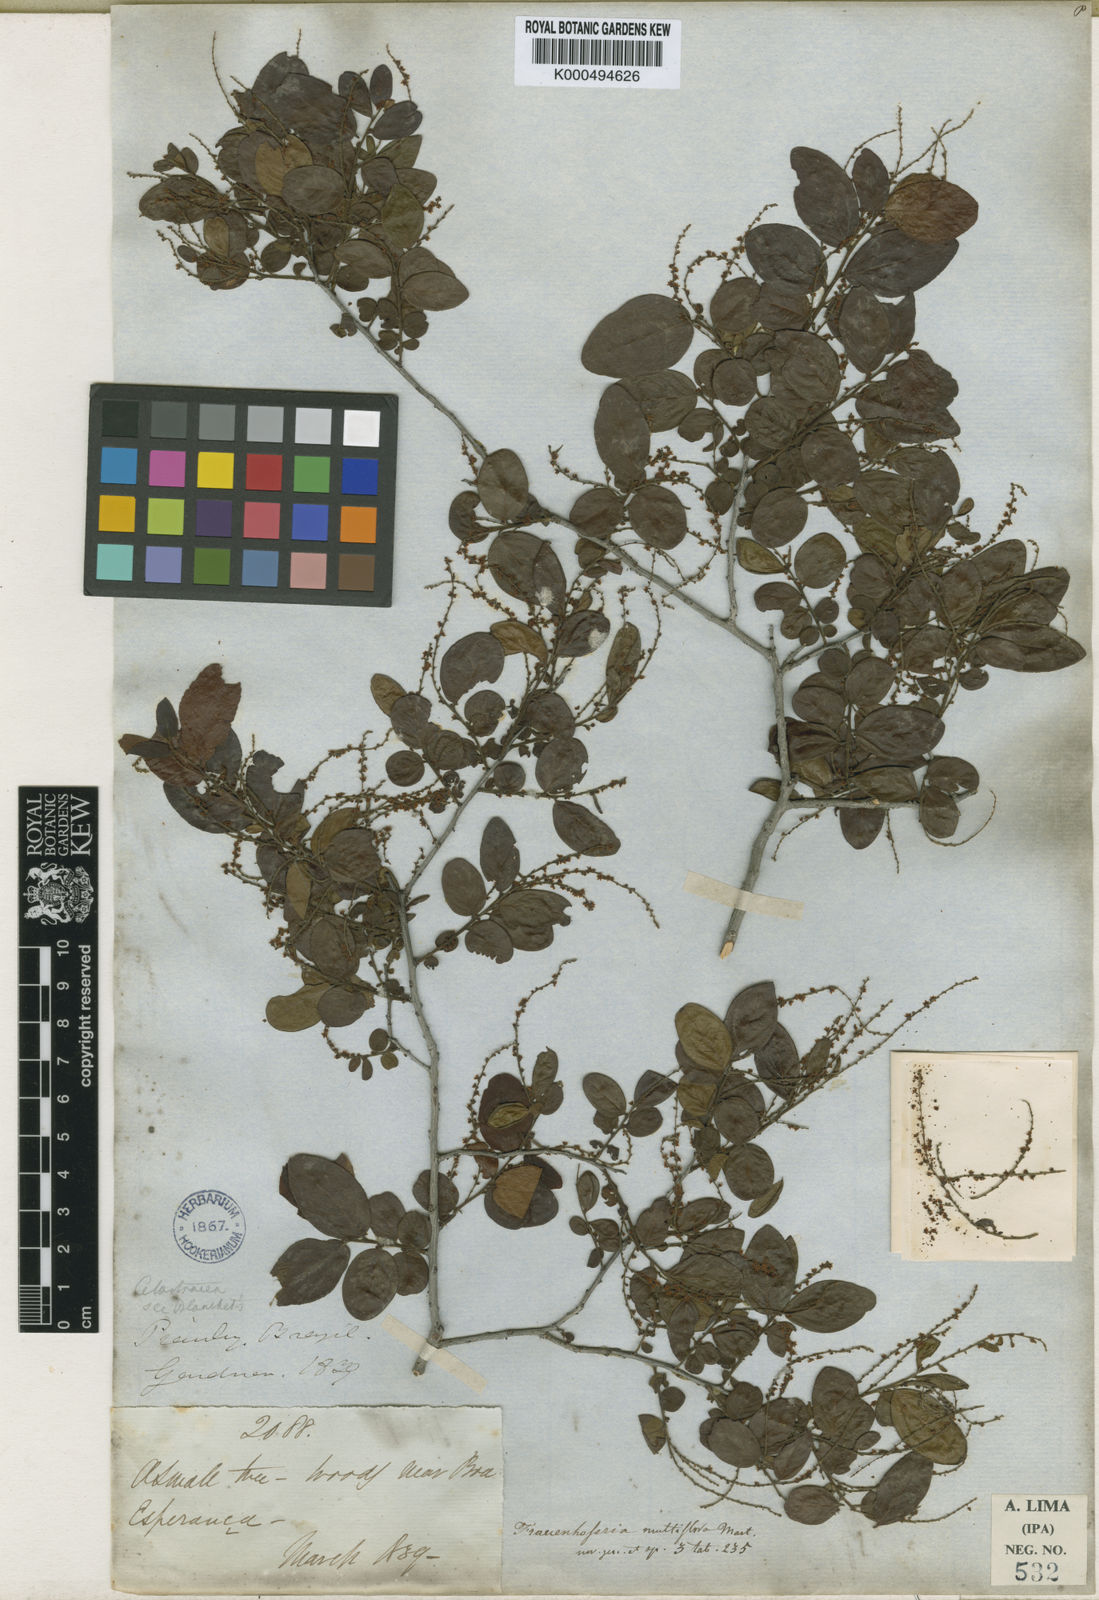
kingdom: Plantae
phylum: Tracheophyta
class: Magnoliopsida
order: Celastrales
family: Celastraceae
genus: Fraunhofera
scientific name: Fraunhofera multiflora
